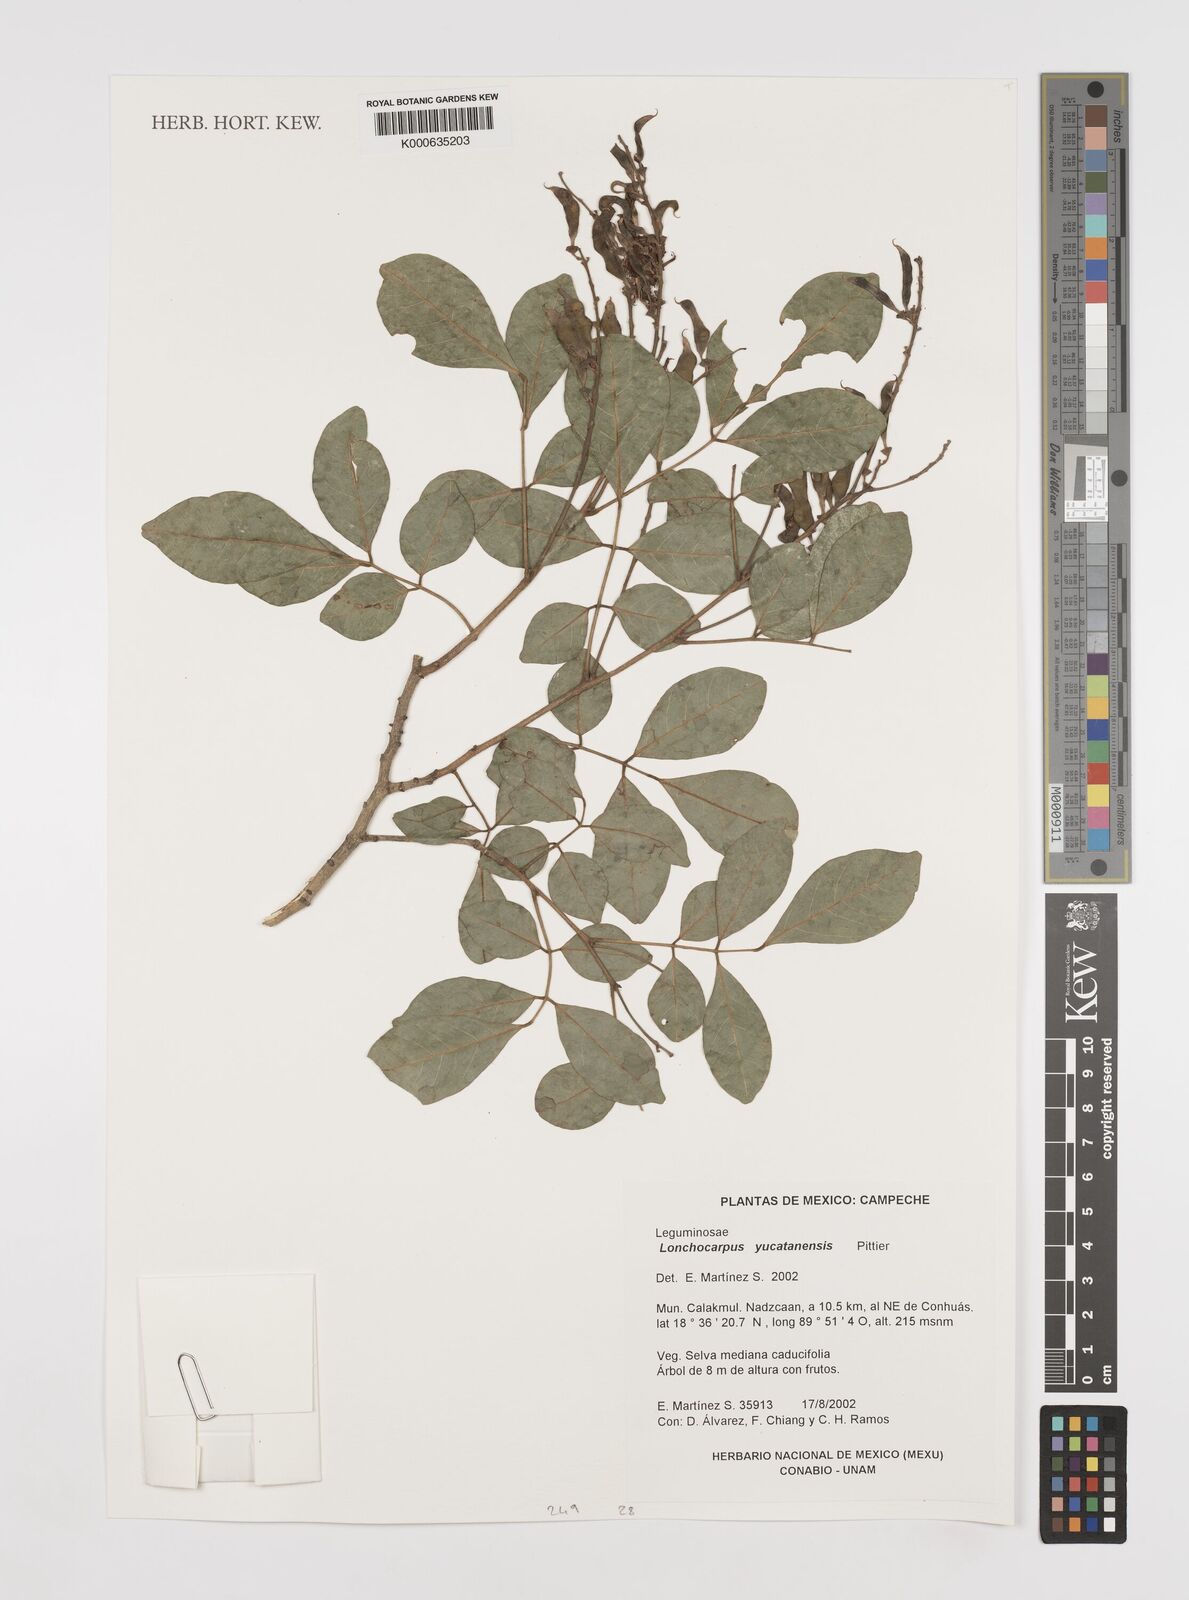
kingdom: Plantae
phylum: Tracheophyta
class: Magnoliopsida
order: Fabales
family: Fabaceae
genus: Lonchocarpus
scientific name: Lonchocarpus yucatanensis
